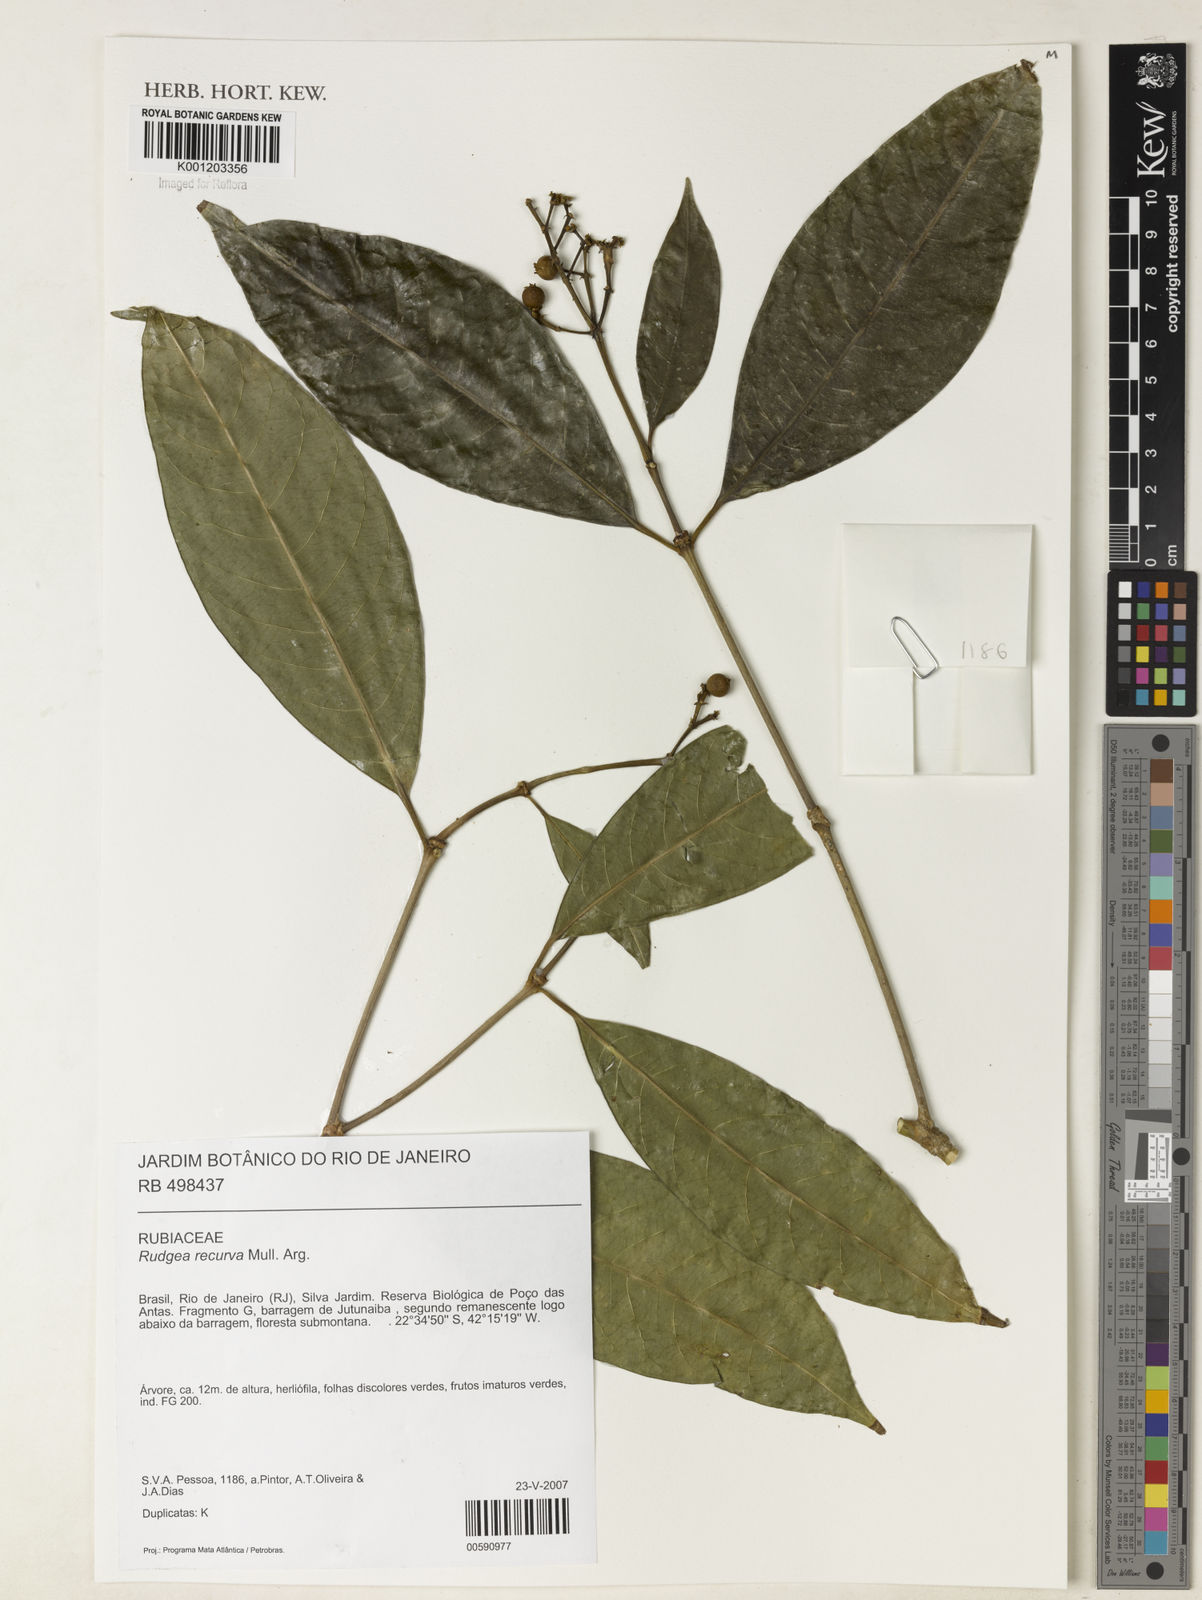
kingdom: Plantae
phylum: Tracheophyta
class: Magnoliopsida
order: Gentianales
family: Rubiaceae
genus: Rudgea
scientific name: Rudgea
